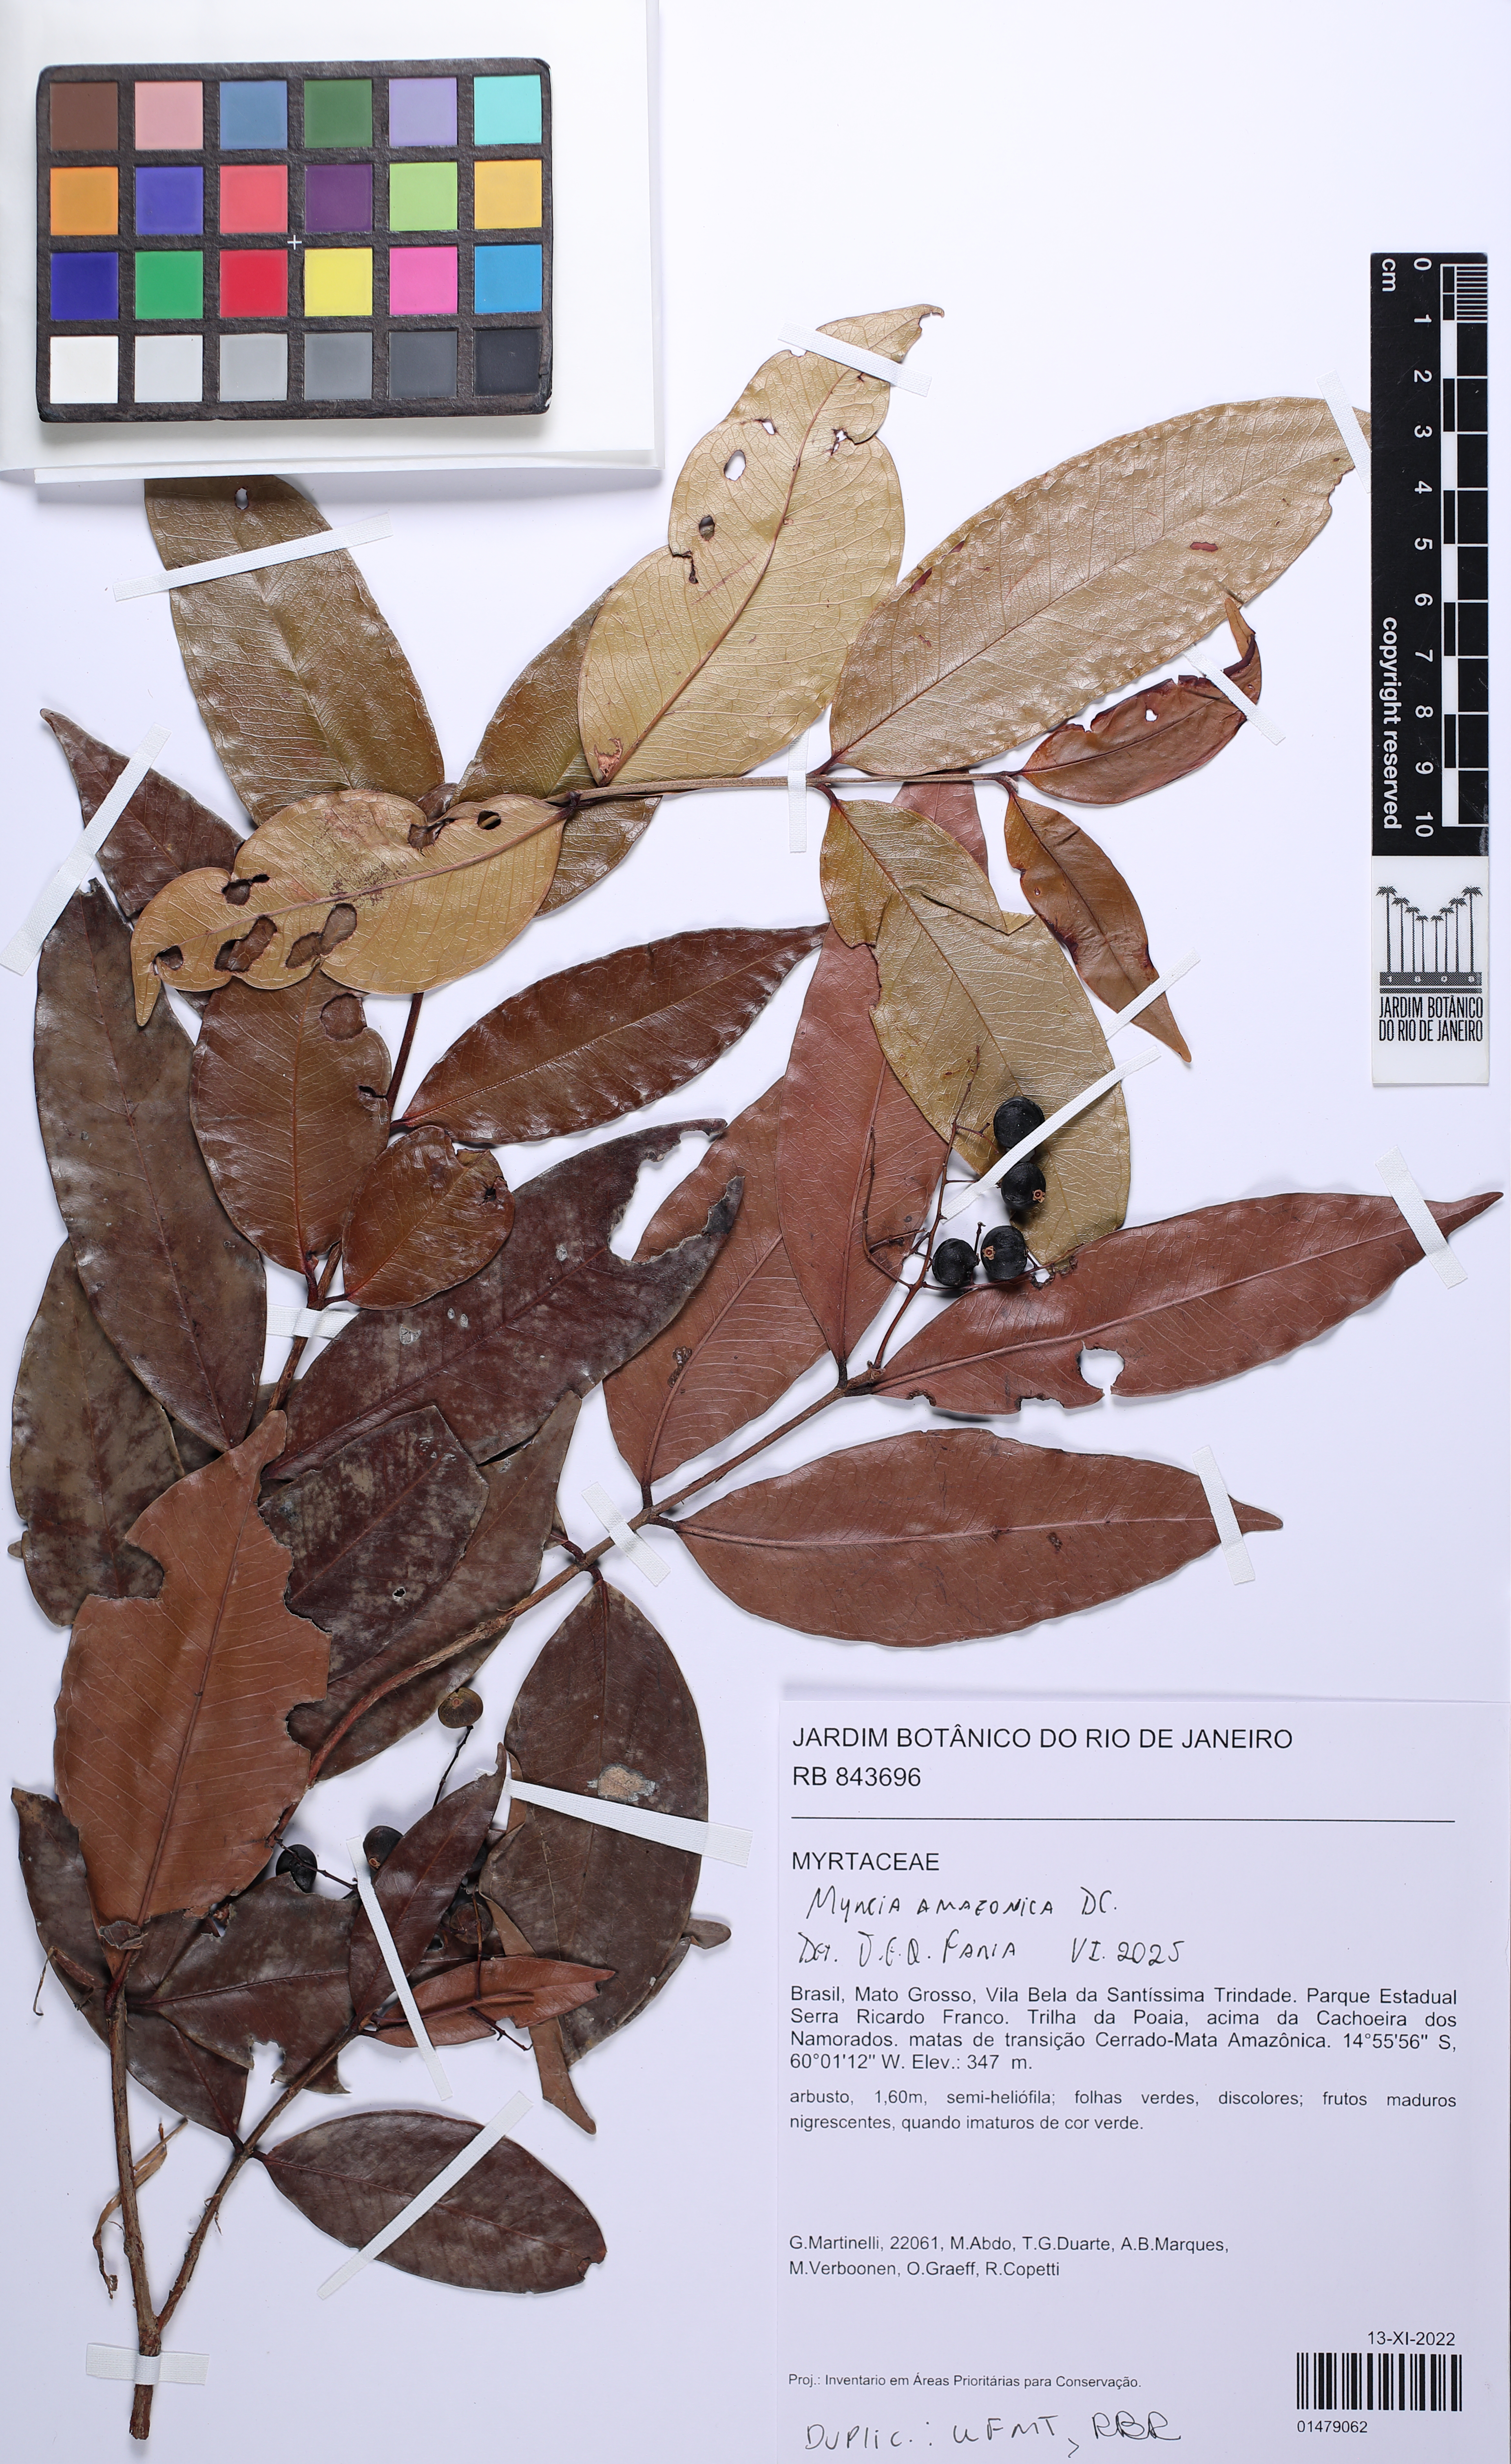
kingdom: Plantae
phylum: Tracheophyta
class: Magnoliopsida
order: Myrtales
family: Myrtaceae
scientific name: Myrtaceae
